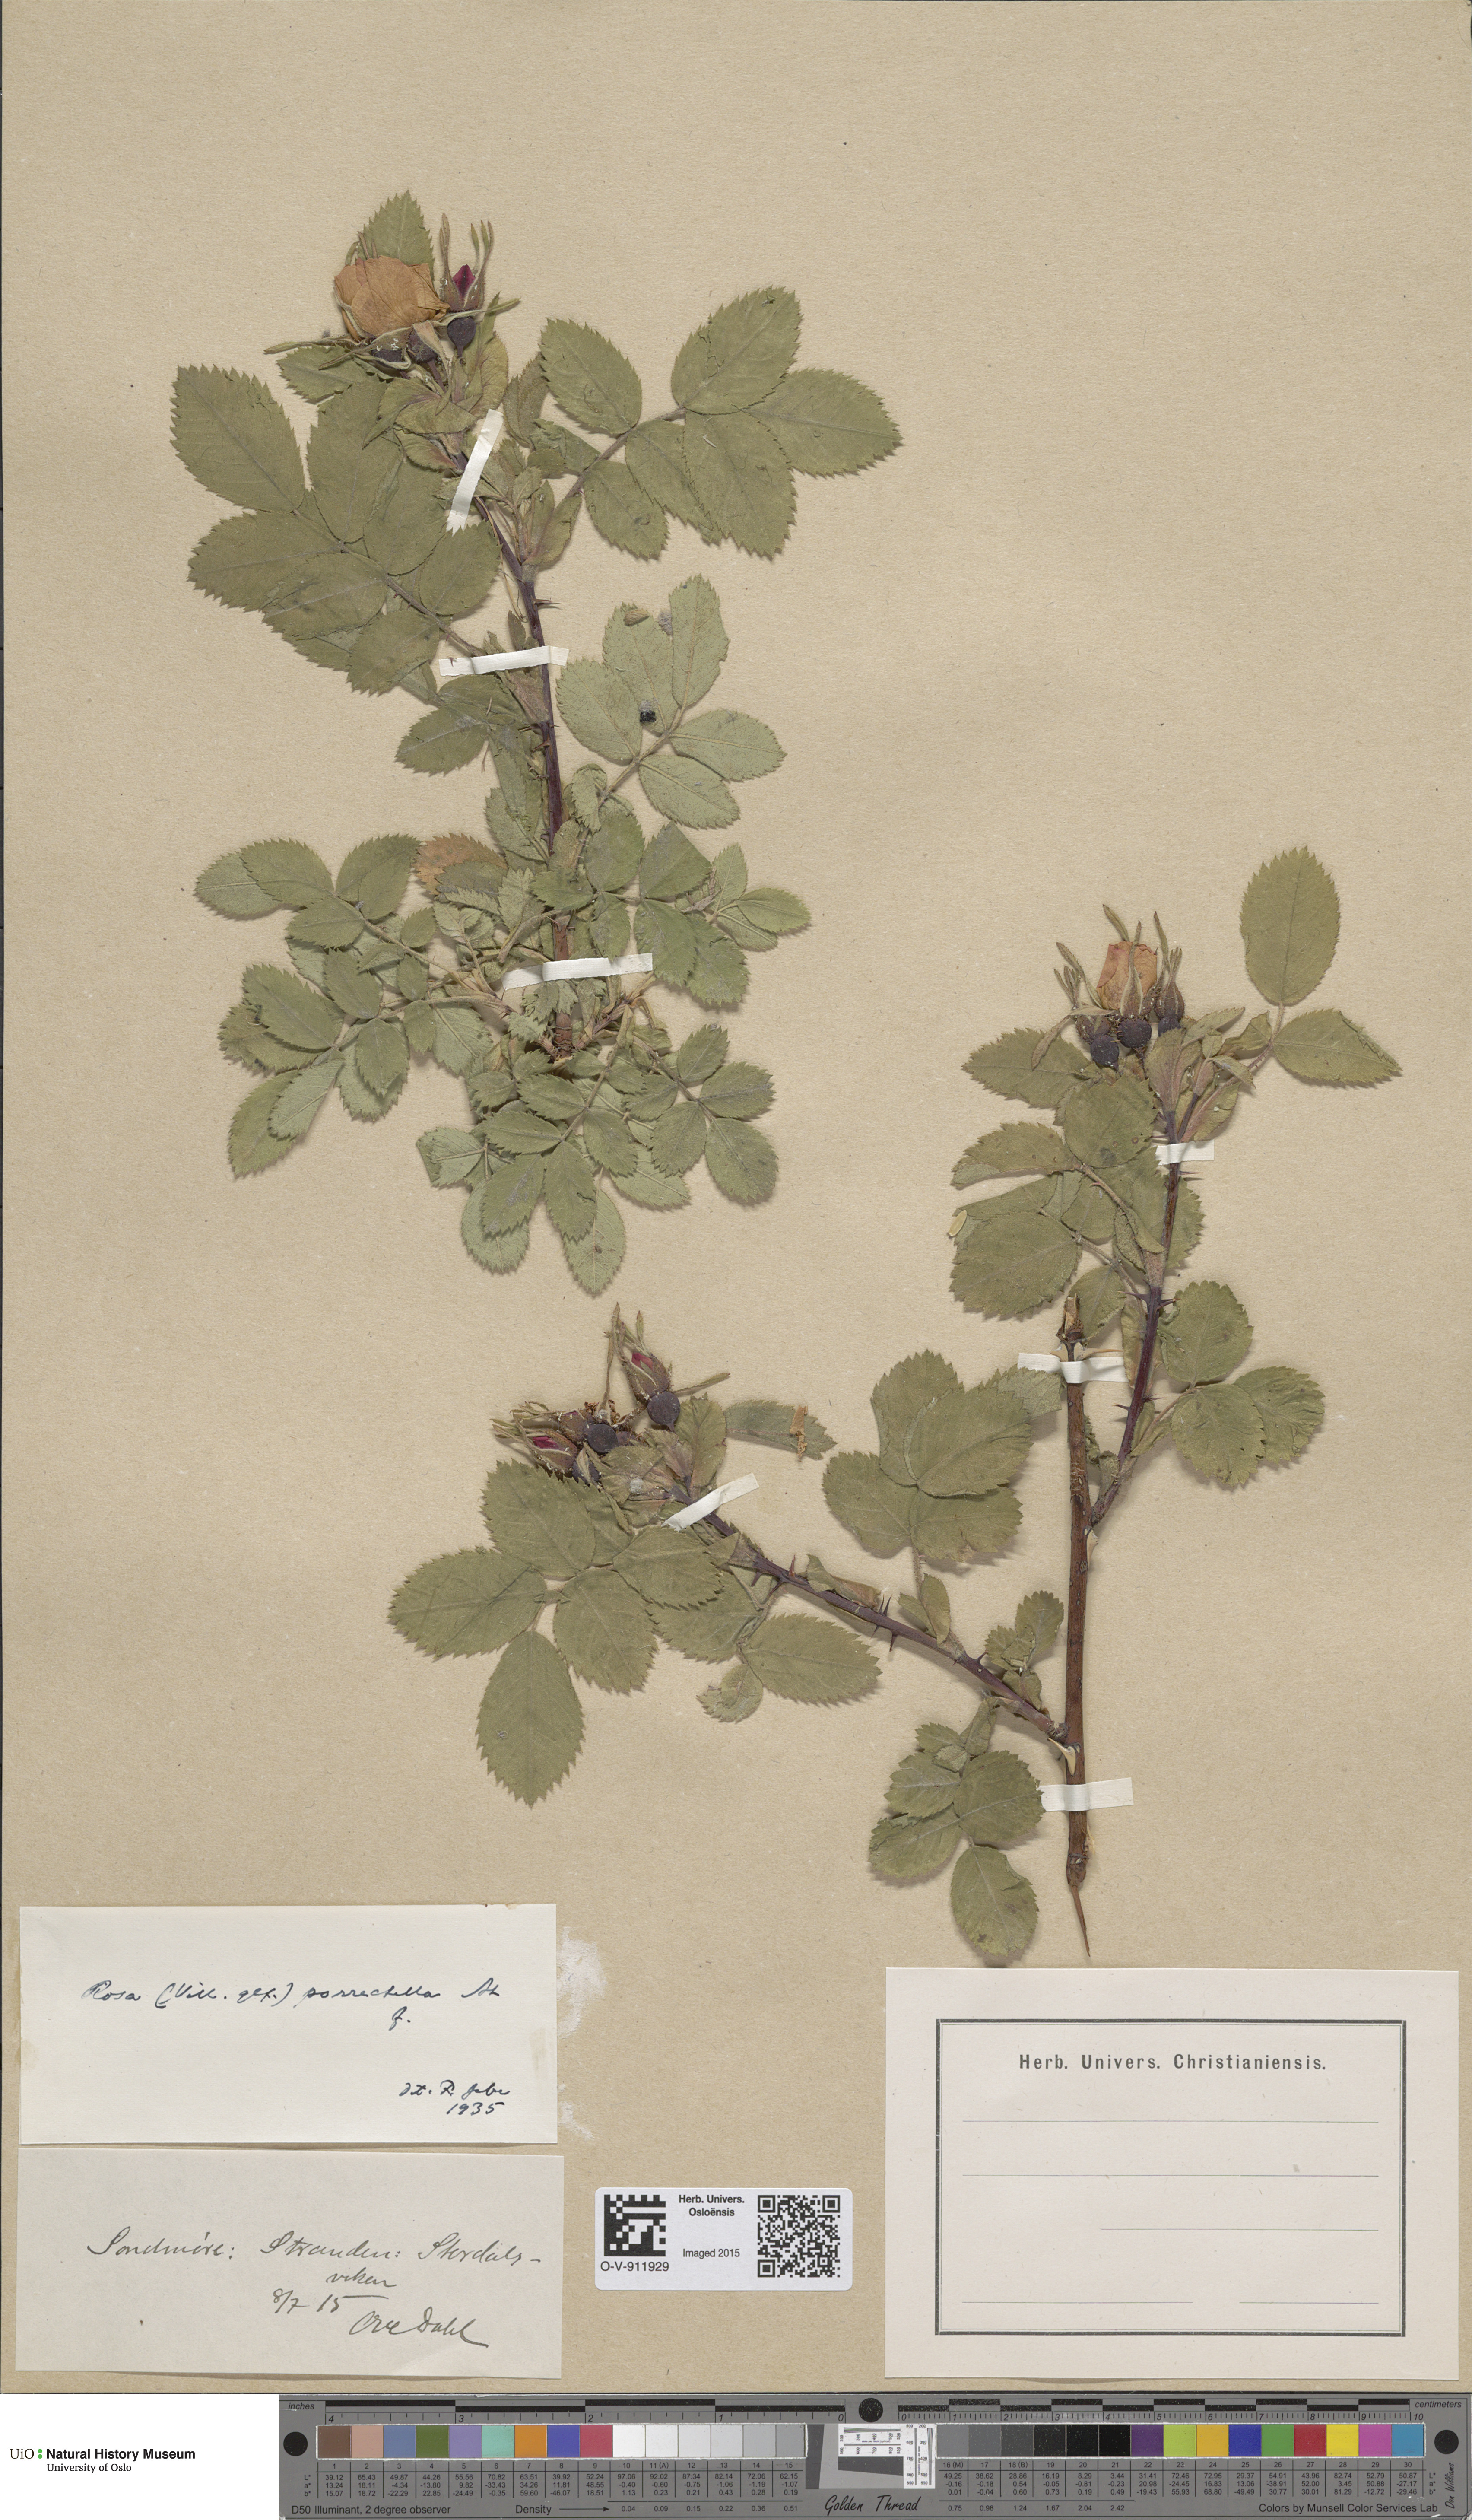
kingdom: Plantae
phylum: Tracheophyta
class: Magnoliopsida
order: Rosales
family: Rosaceae
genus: Rosa
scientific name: Rosa mollis
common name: Rose
